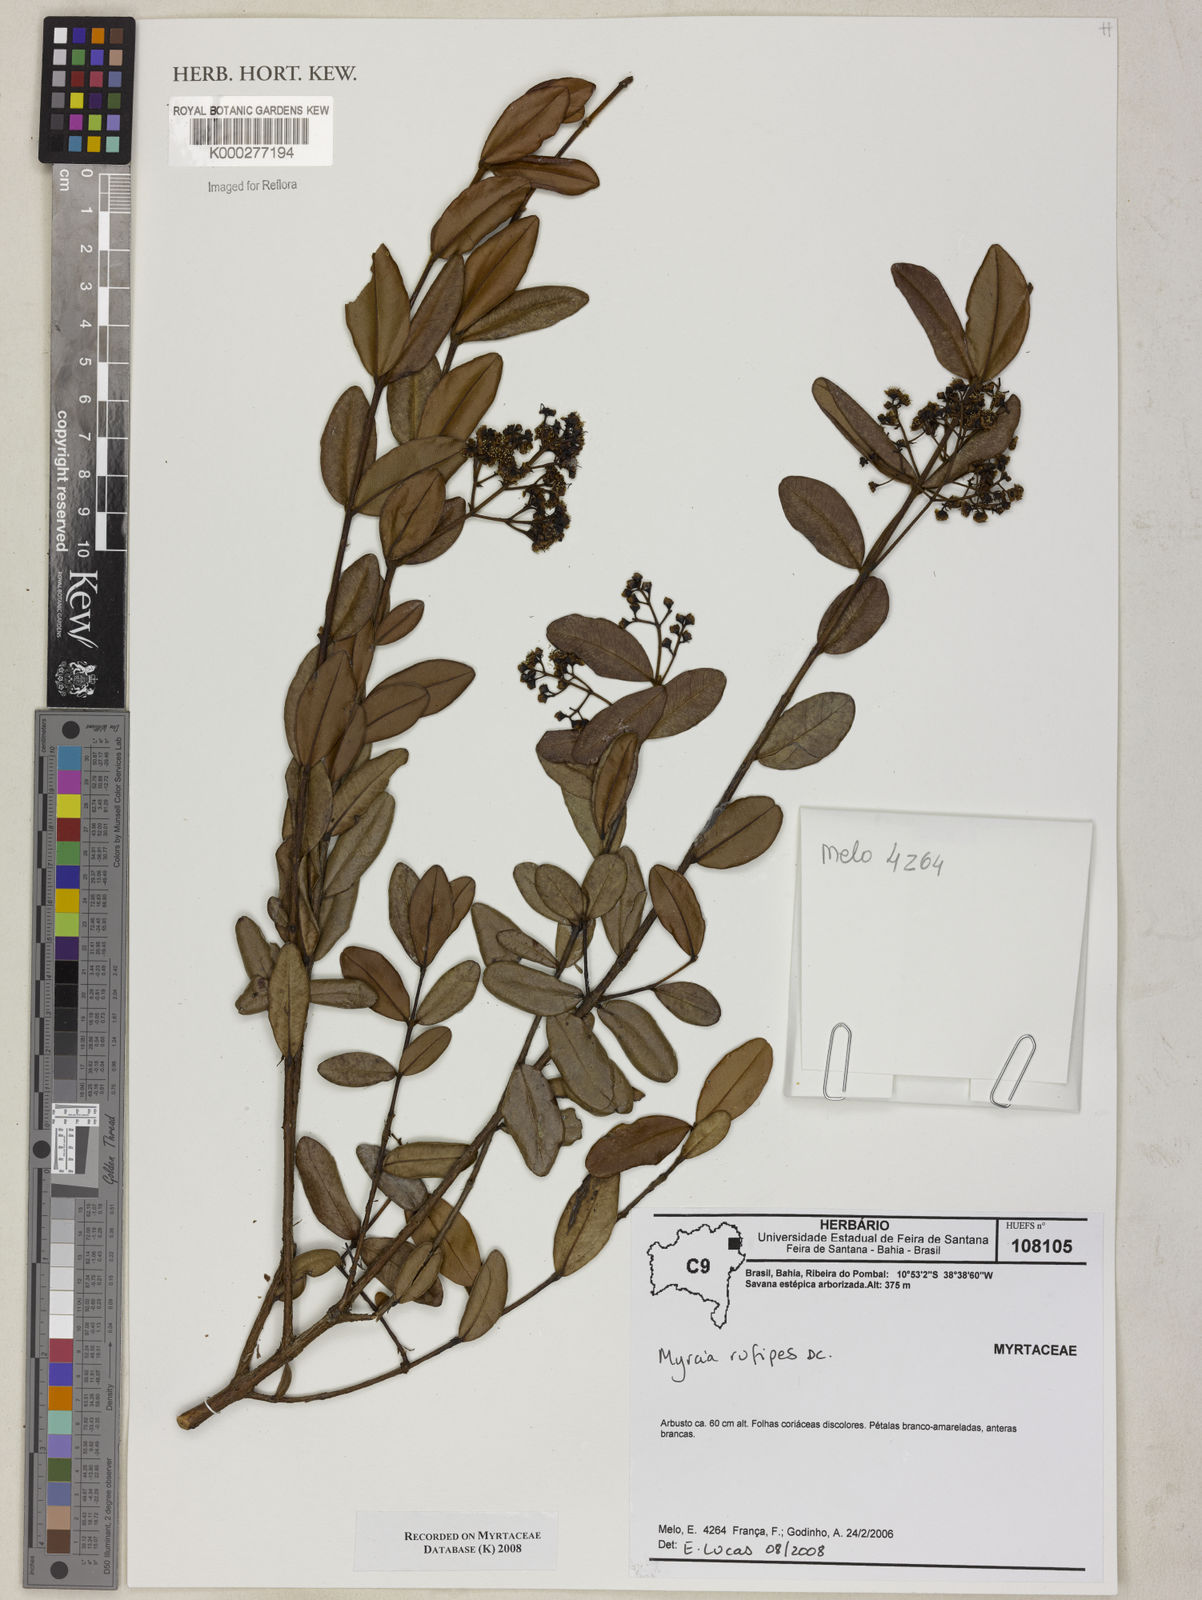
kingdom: Plantae
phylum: Tracheophyta
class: Magnoliopsida
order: Myrtales
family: Myrtaceae
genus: Myrcia
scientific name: Myrcia rufipes
